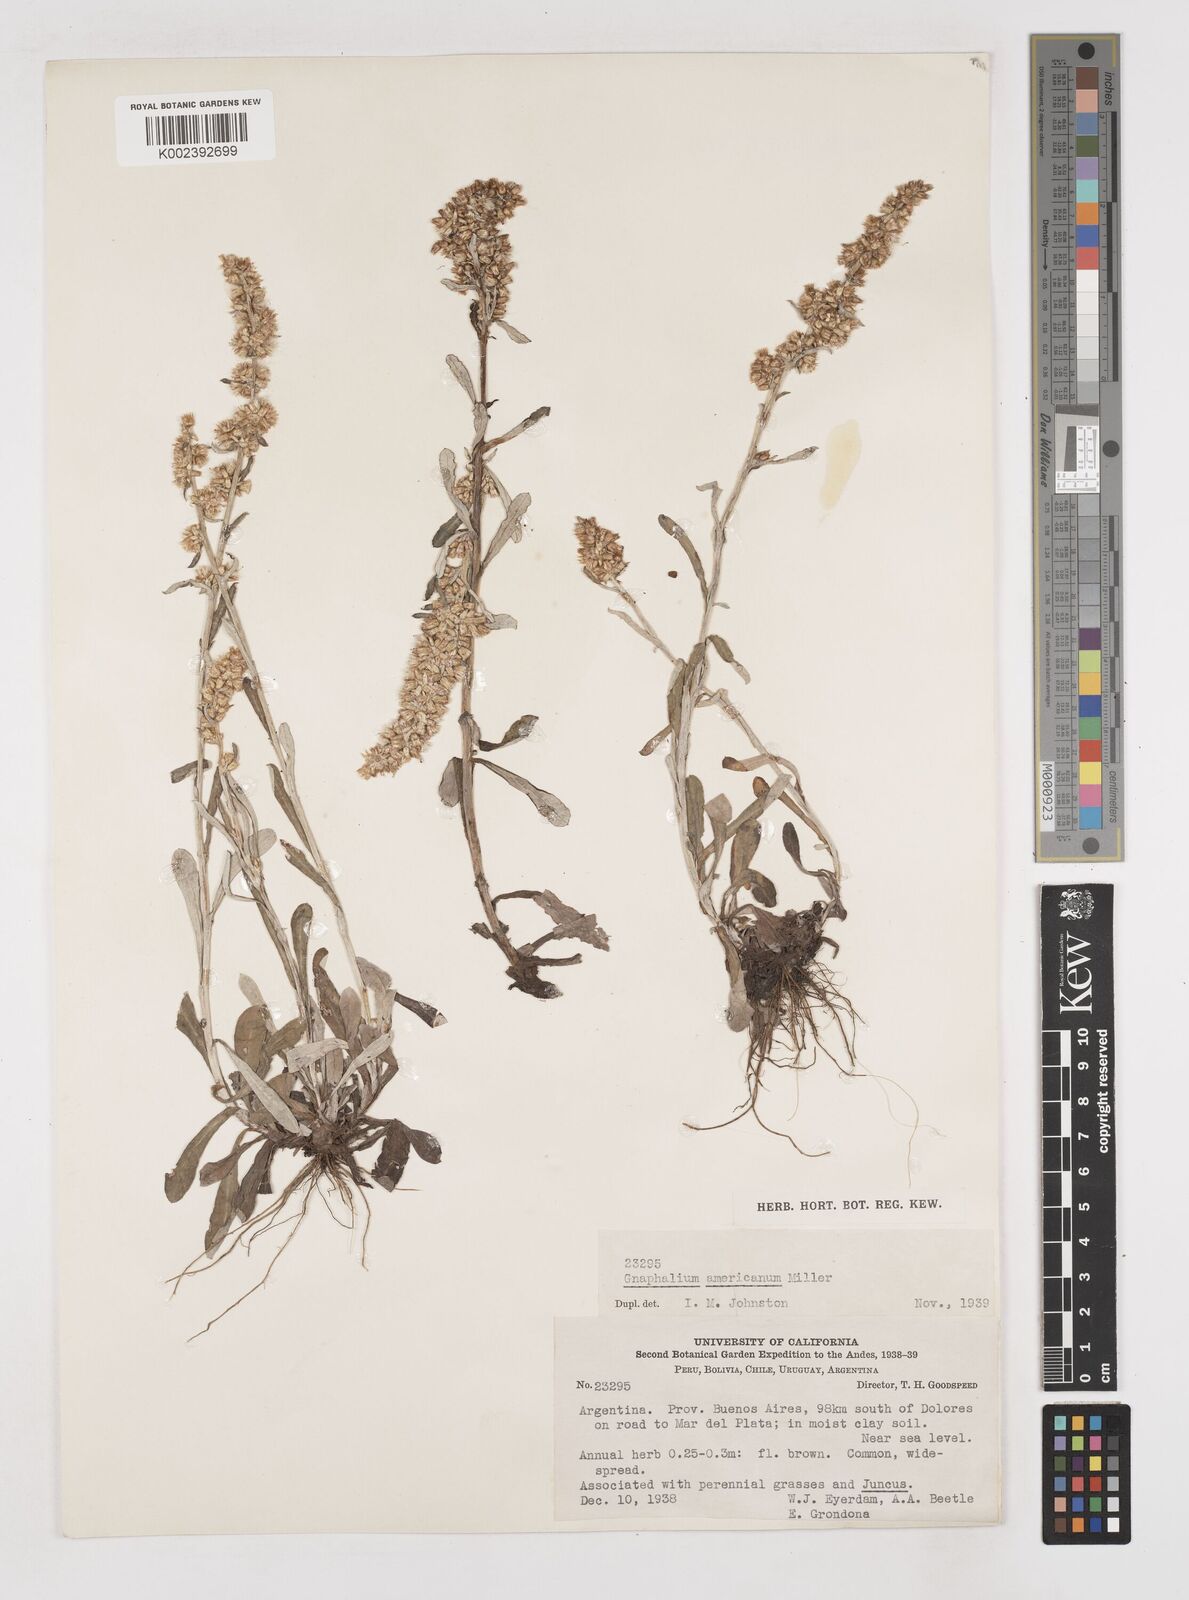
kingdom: Plantae
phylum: Tracheophyta
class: Magnoliopsida
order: Asterales
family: Asteraceae
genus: Anaphalis
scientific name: Anaphalis margaritacea
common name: Pearly everlasting
